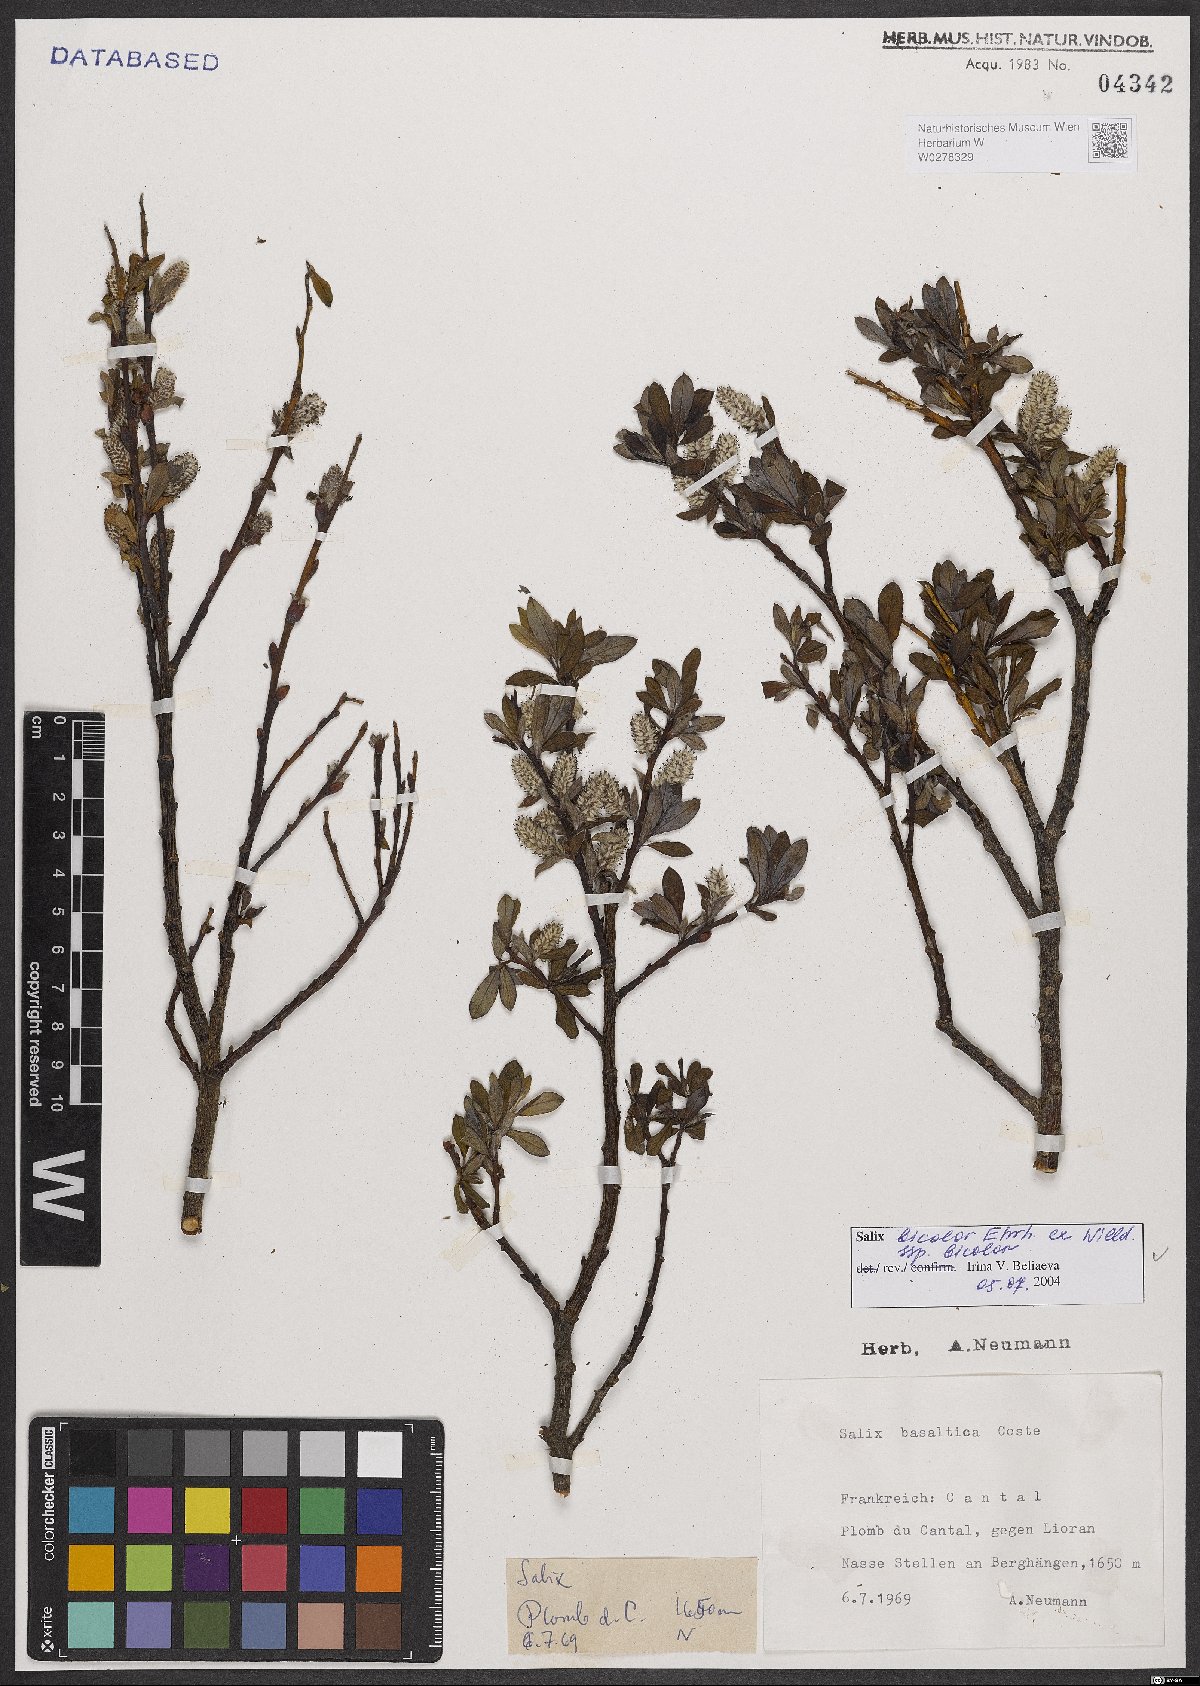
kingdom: Plantae
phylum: Tracheophyta
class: Magnoliopsida
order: Malpighiales
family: Salicaceae
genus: Salix
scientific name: Salix bicolor
